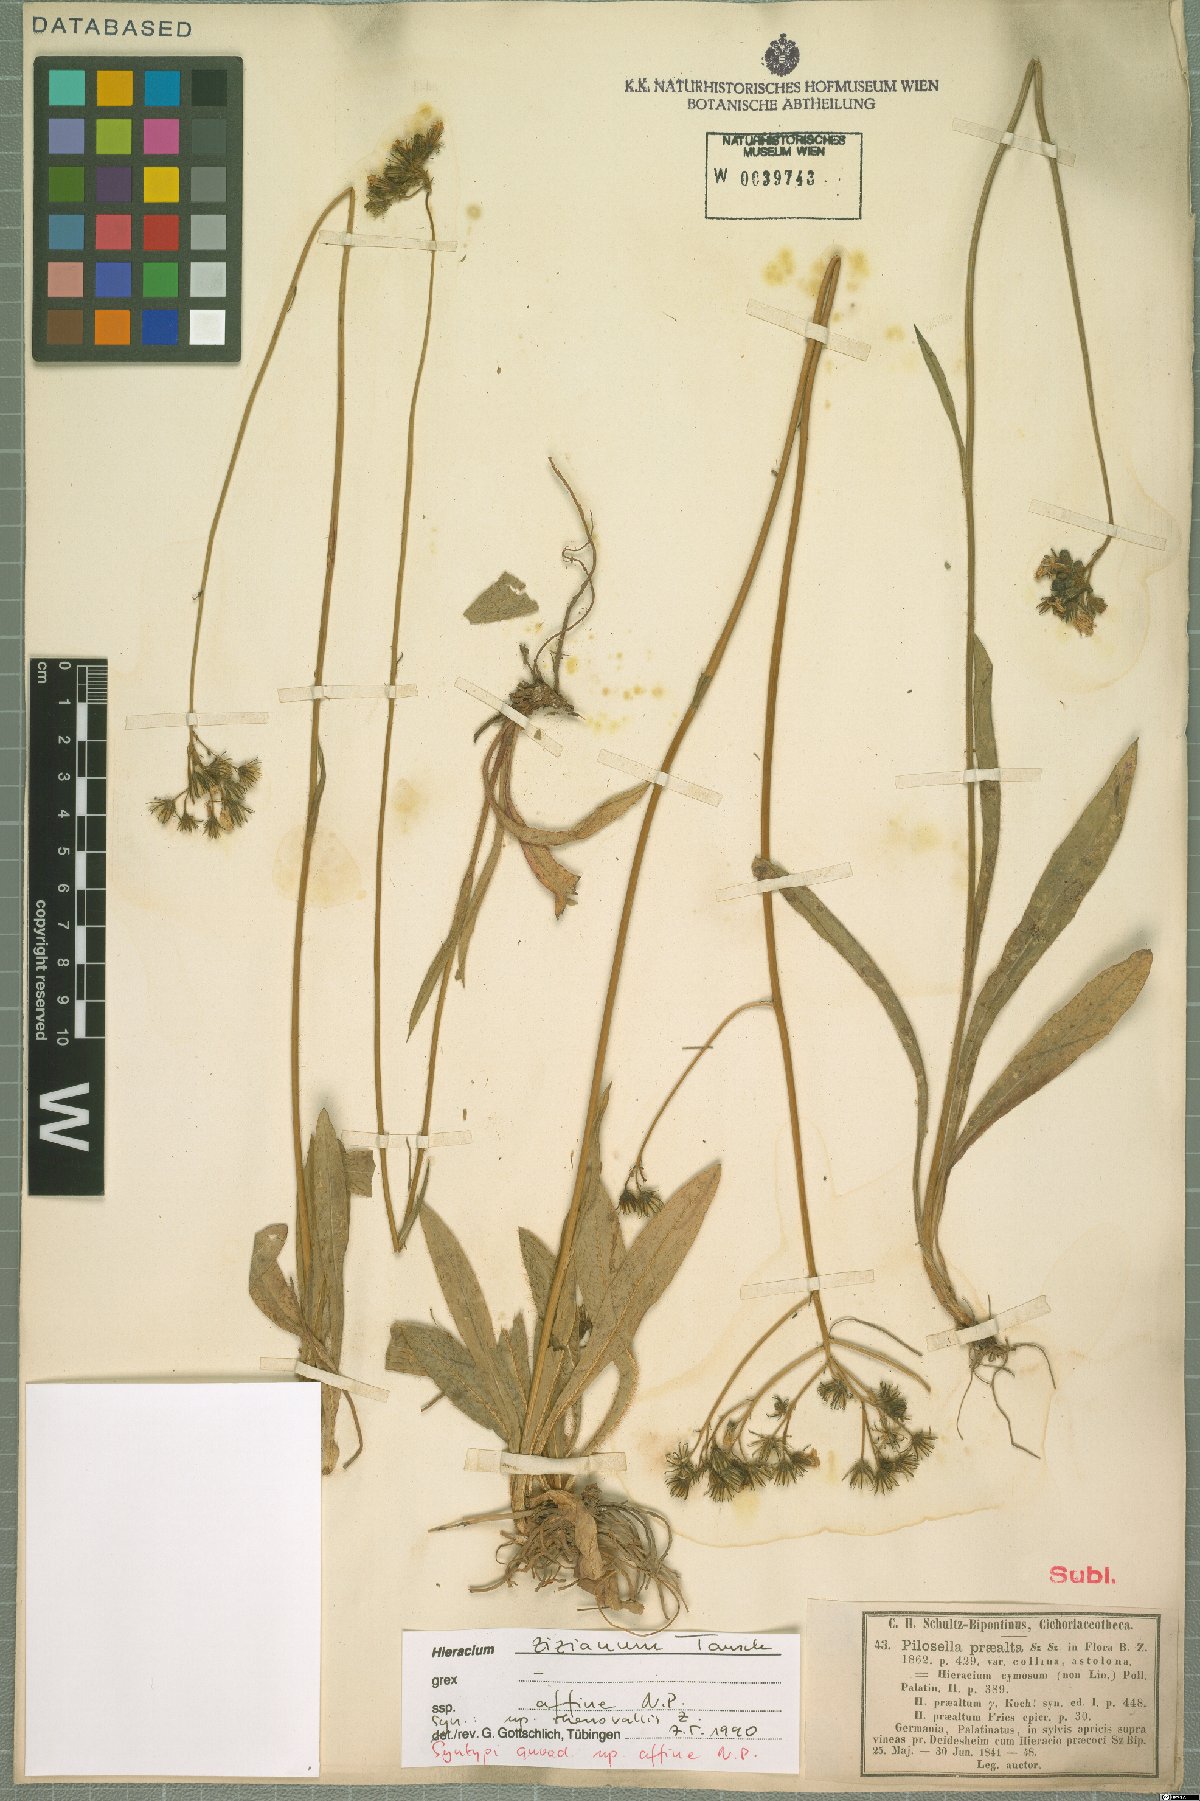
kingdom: Plantae
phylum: Tracheophyta
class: Magnoliopsida
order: Asterales
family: Asteraceae
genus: Pilosella
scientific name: Pilosella ziziana
